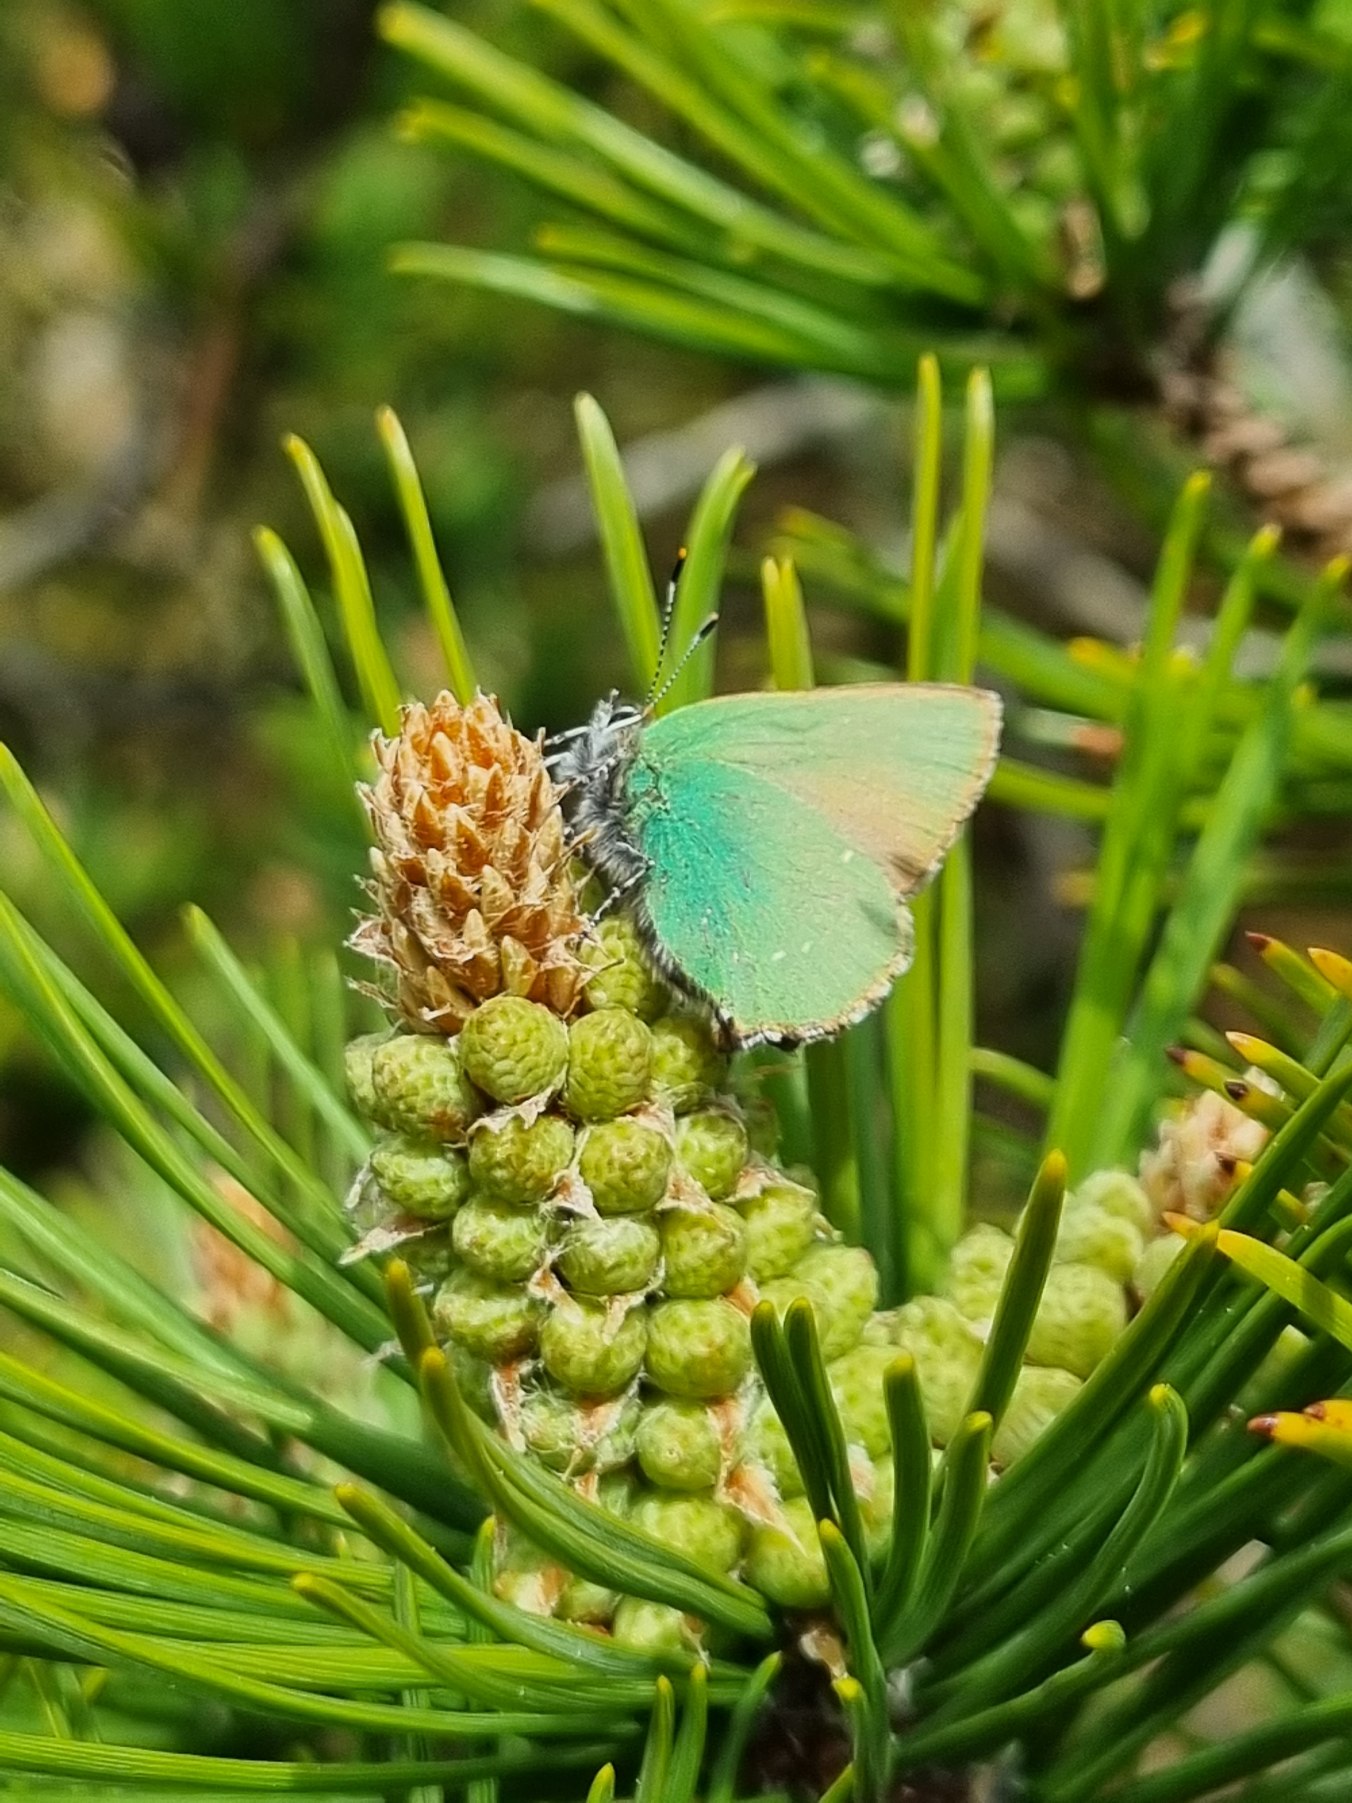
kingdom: Animalia
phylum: Arthropoda
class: Insecta
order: Lepidoptera
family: Lycaenidae
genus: Callophrys
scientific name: Callophrys rubi
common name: Grøn busksommerfugl
